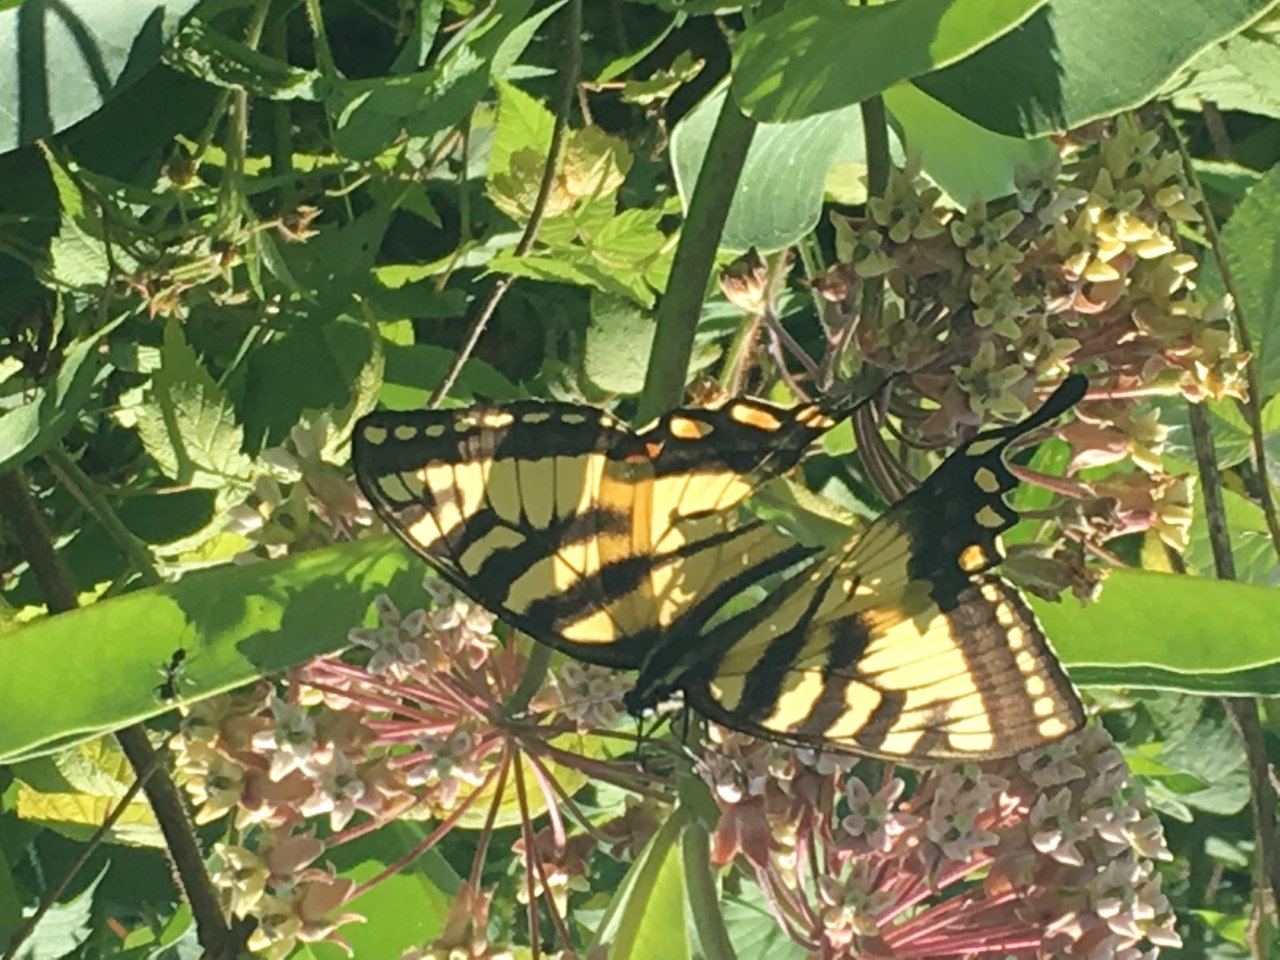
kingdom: Animalia
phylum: Arthropoda
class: Insecta
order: Lepidoptera
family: Papilionidae
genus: Pterourus
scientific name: Pterourus glaucus
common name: Eastern Tiger Swallowtail
